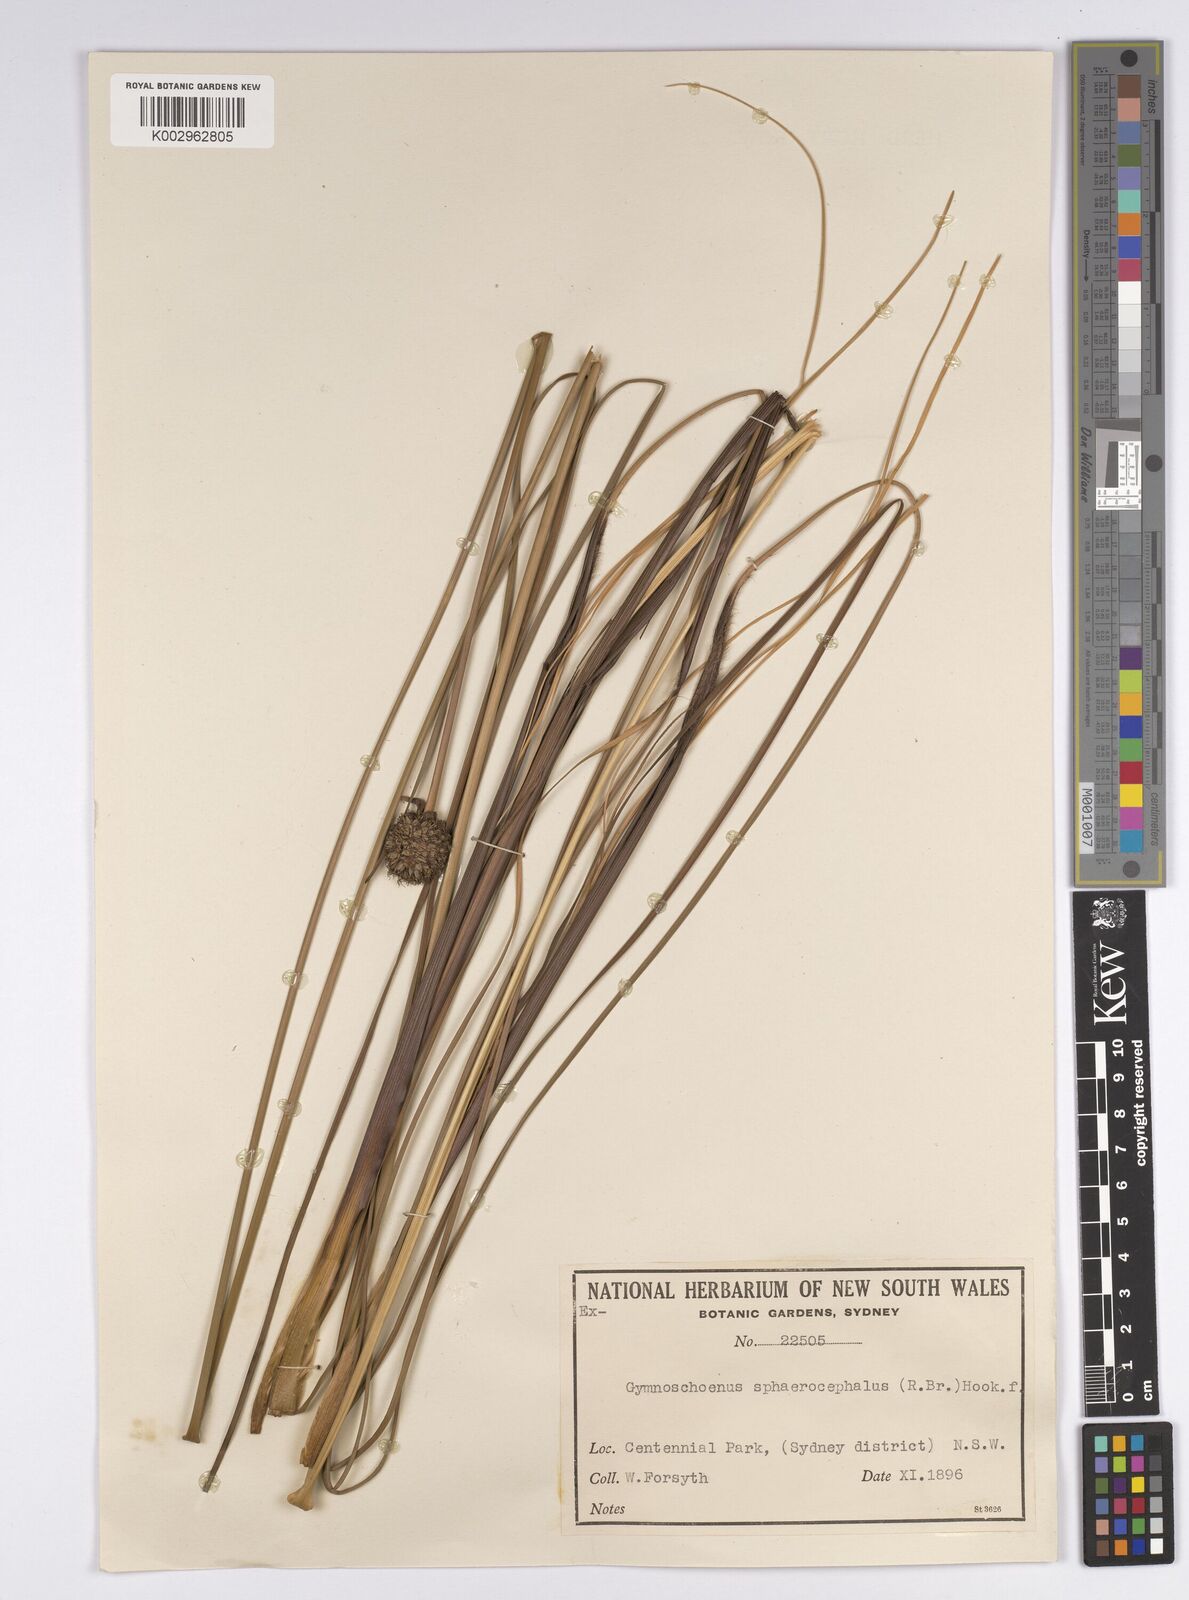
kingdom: Plantae
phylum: Tracheophyta
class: Liliopsida
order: Poales
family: Cyperaceae
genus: Gymnoschoenus
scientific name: Gymnoschoenus sphaerocephalus
